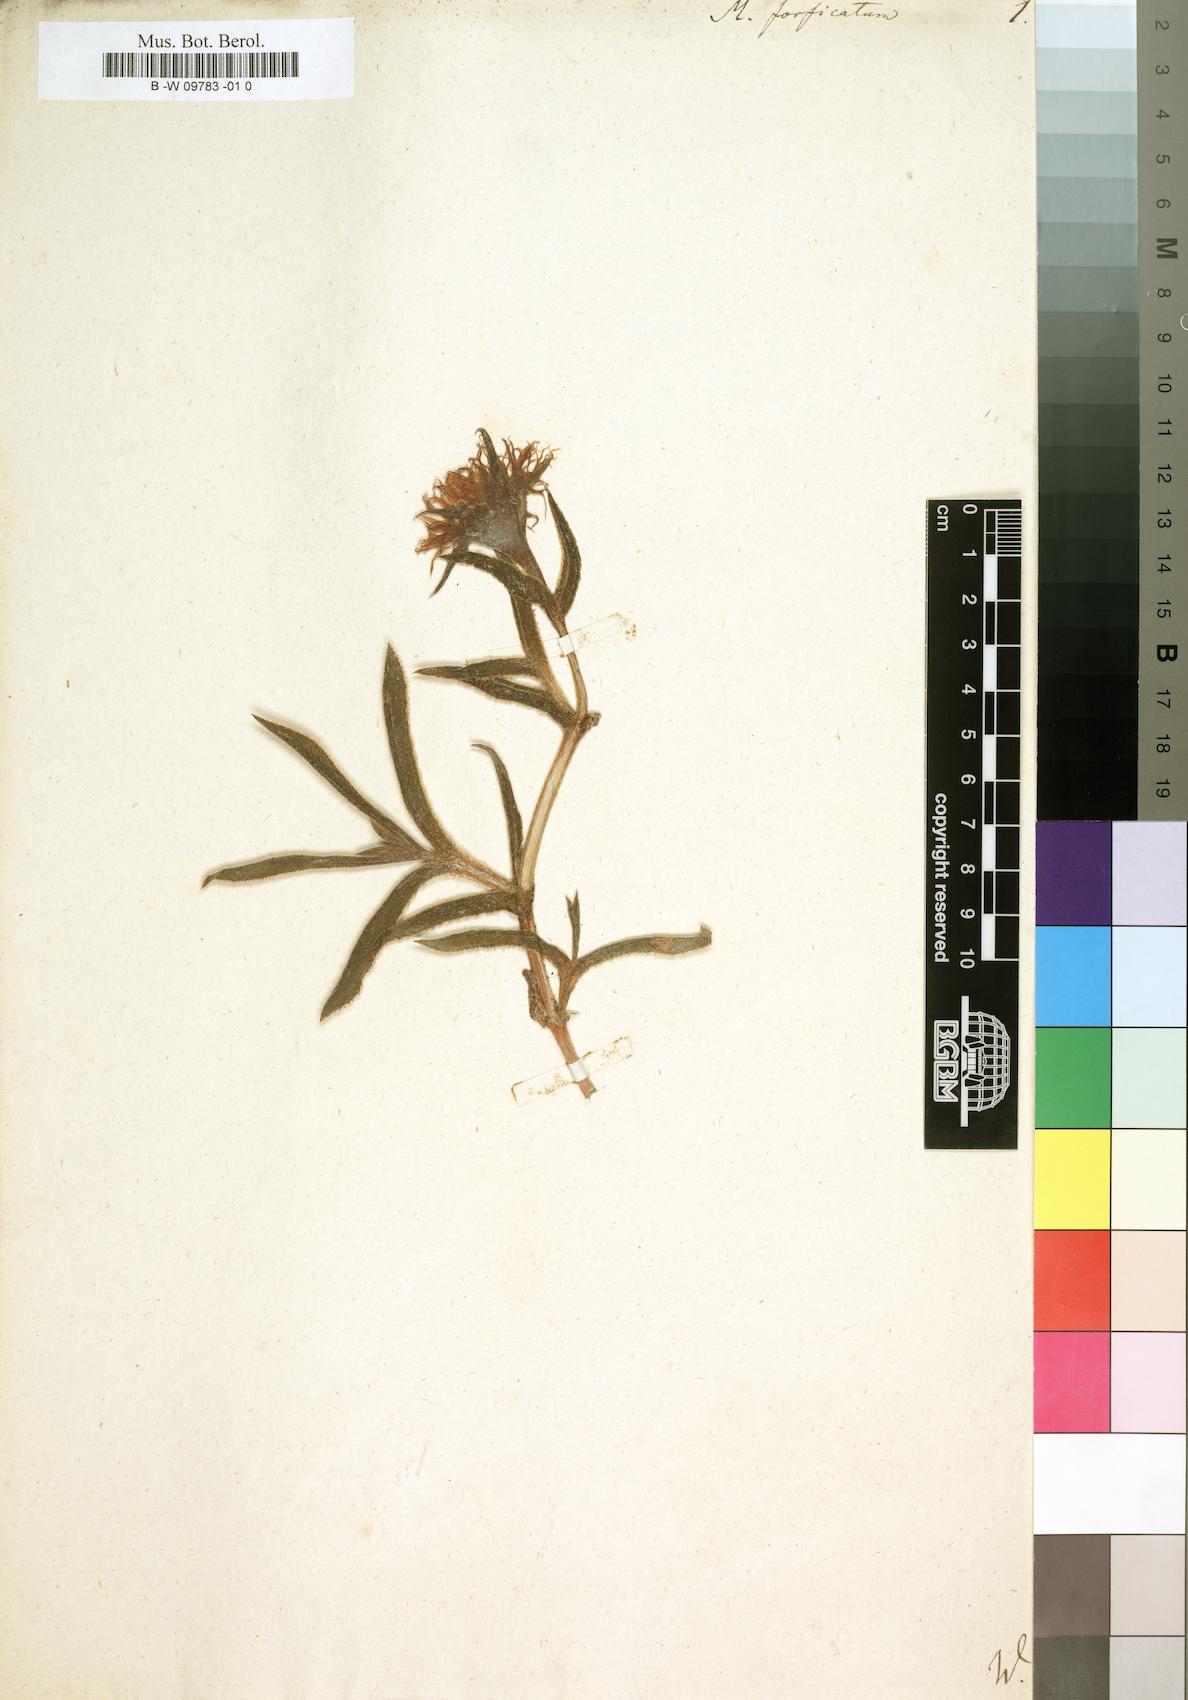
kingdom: Plantae
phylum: Tracheophyta
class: Magnoliopsida
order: Caryophyllales
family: Aizoaceae
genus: Erepsia
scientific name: Erepsia forficata
